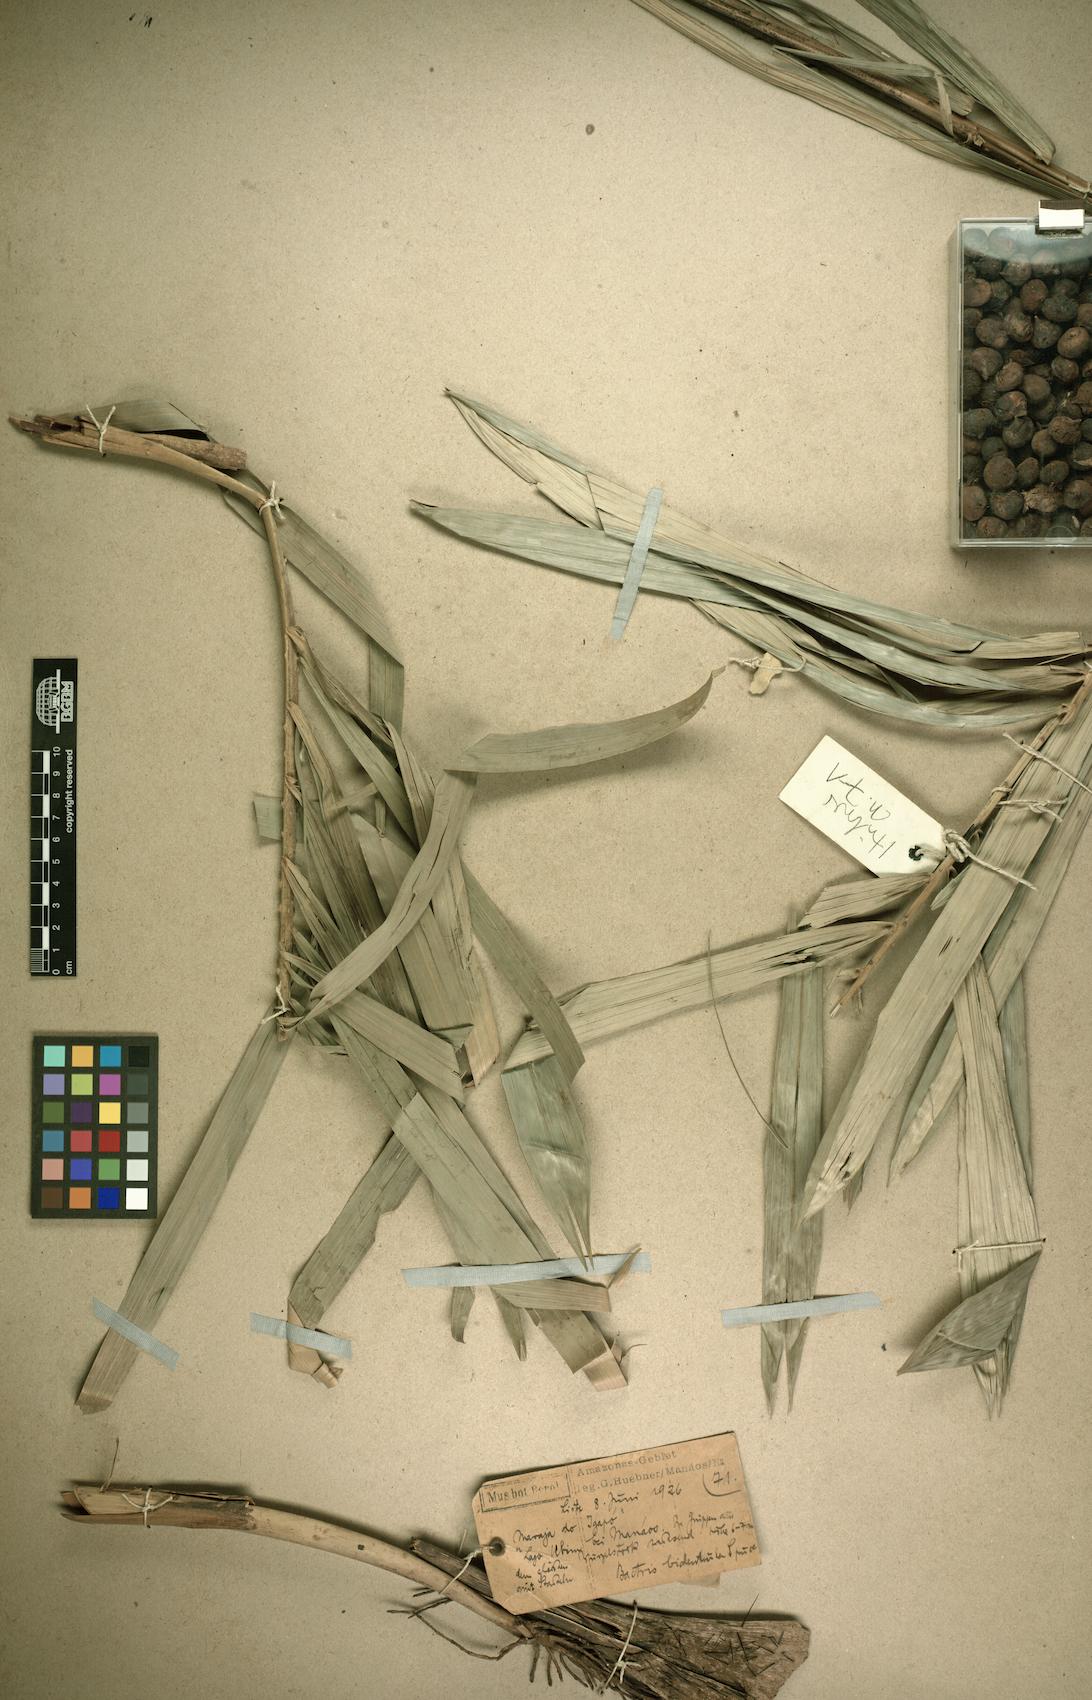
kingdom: Plantae
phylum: Tracheophyta
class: Liliopsida
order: Arecales
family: Arecaceae
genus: Bactris
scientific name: Bactris bidentula
